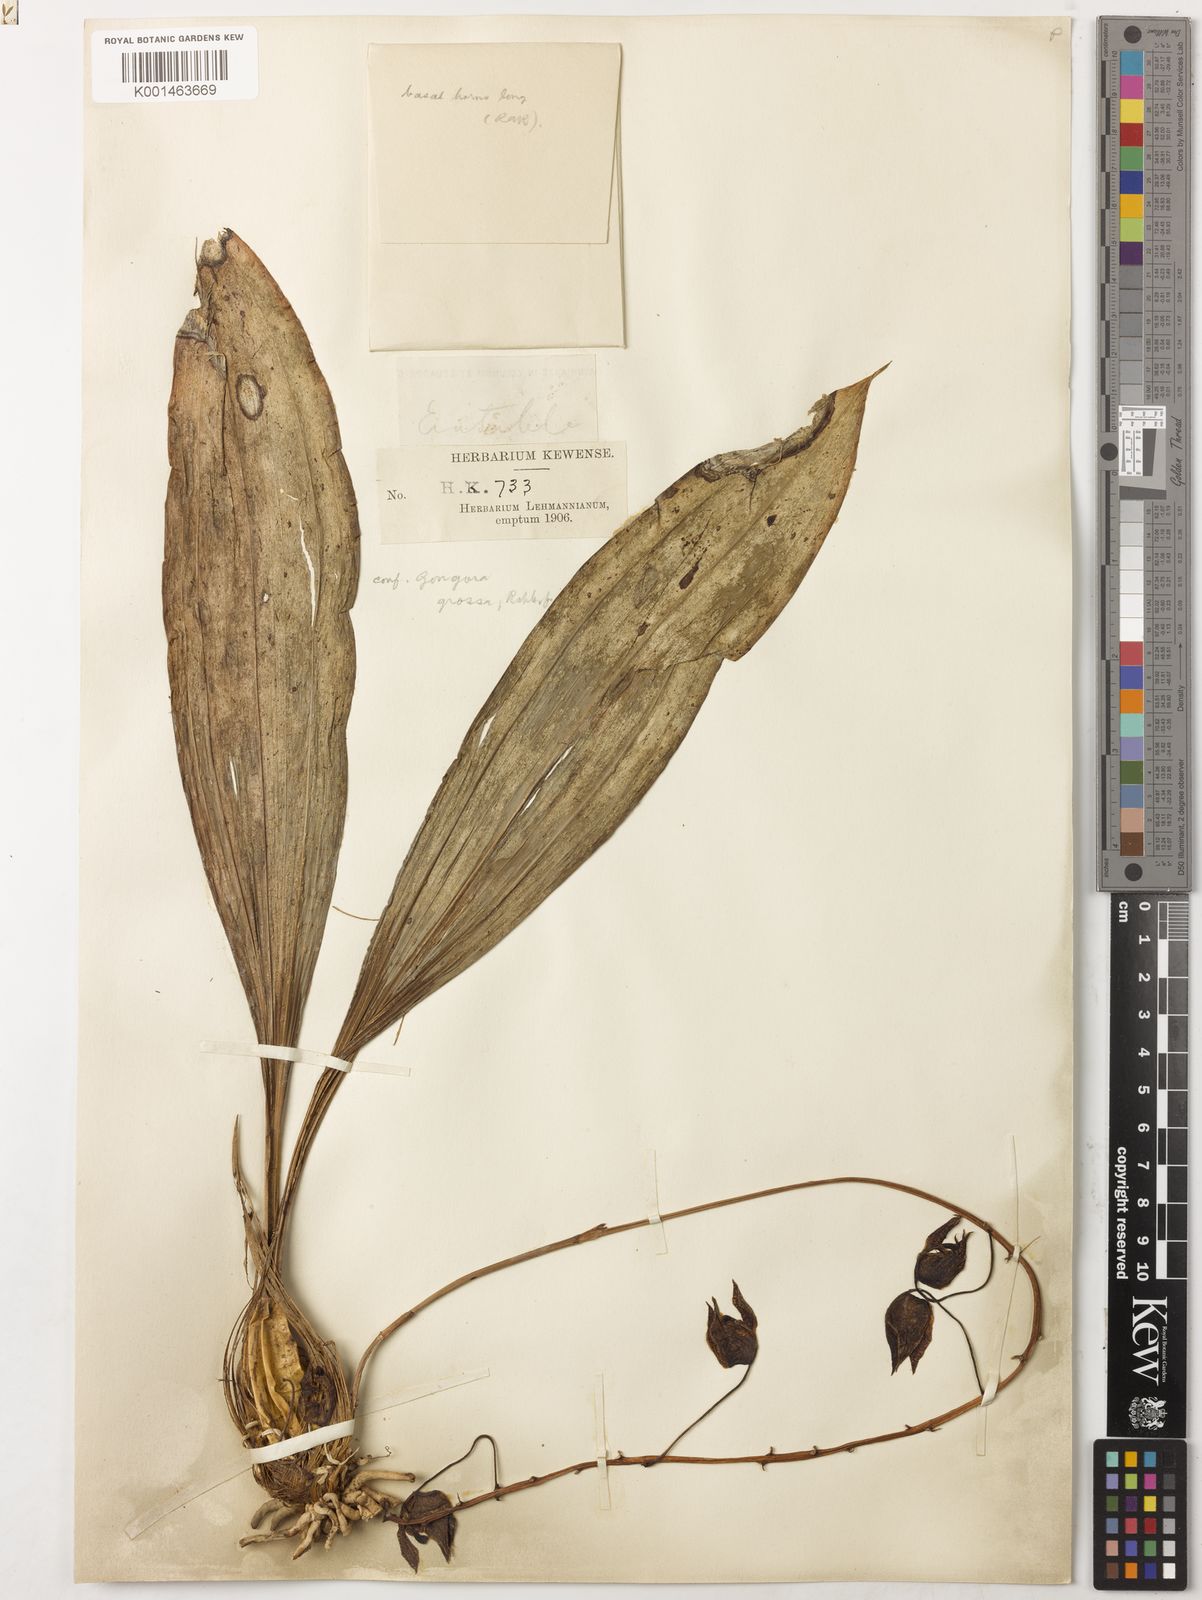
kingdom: Plantae
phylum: Tracheophyta
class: Liliopsida
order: Asparagales
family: Orchidaceae
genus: Gongora
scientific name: Gongora grossa
